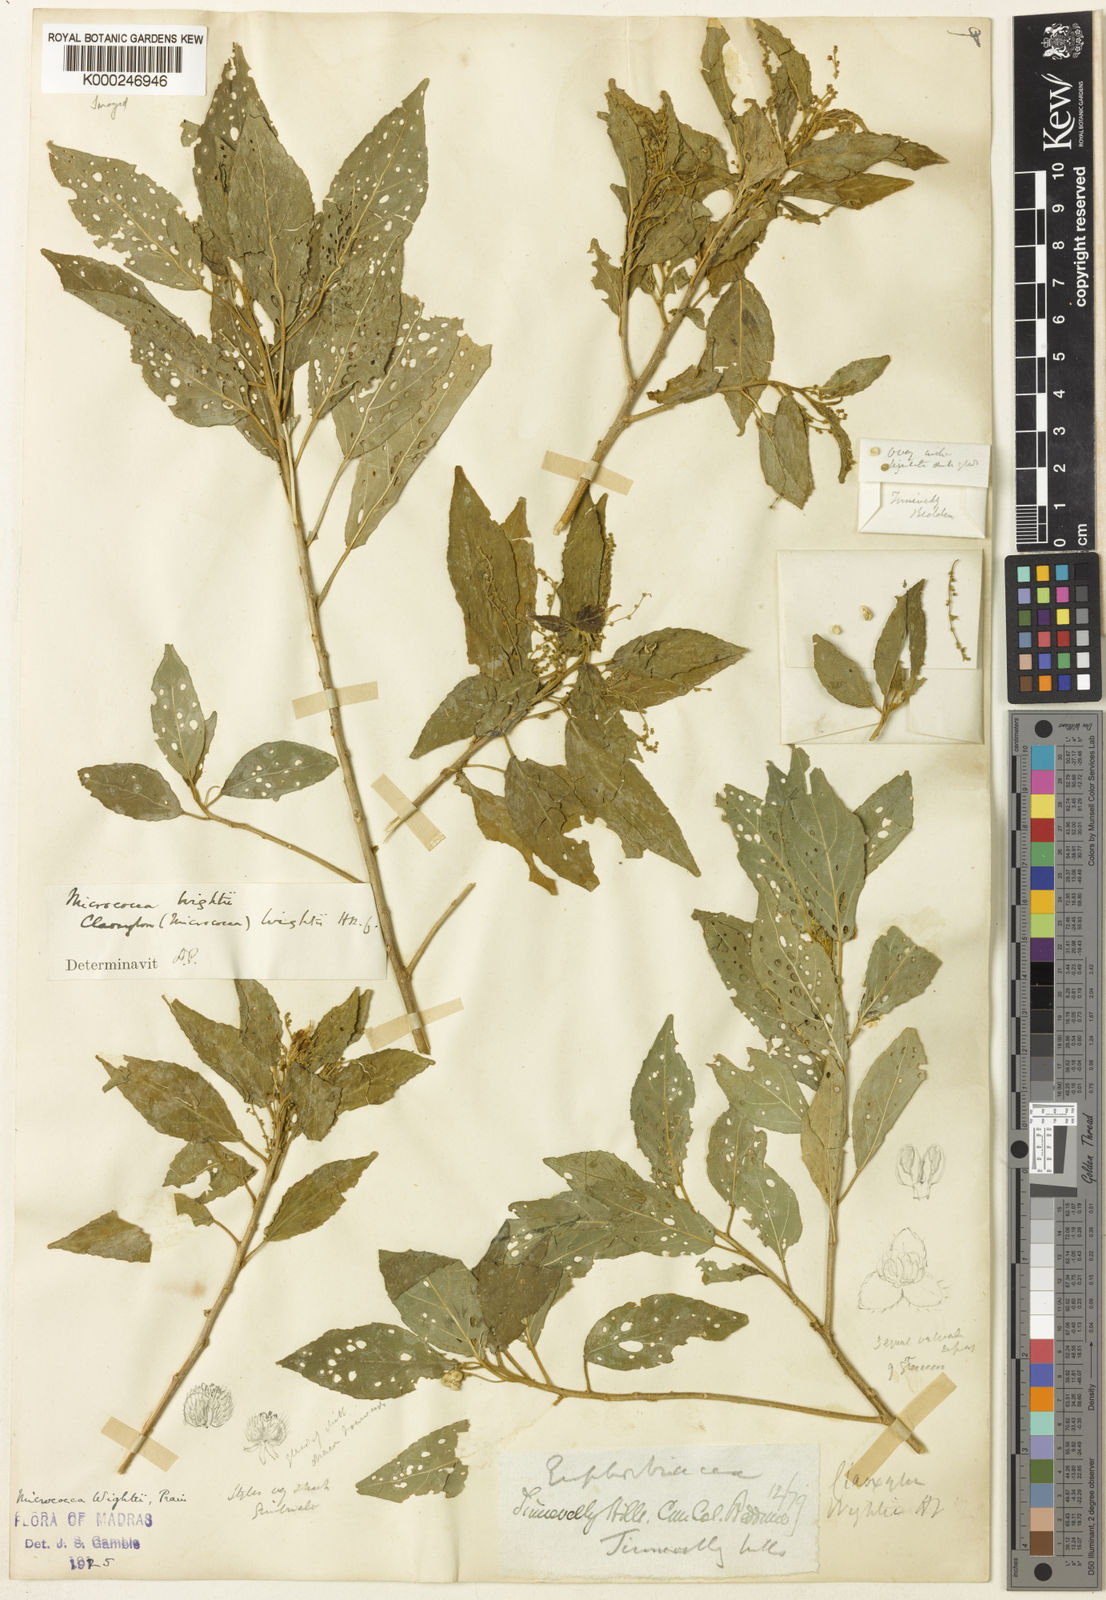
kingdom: Plantae
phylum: Tracheophyta
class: Magnoliopsida
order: Malpighiales
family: Euphorbiaceae
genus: Micrococca
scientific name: Micrococca wightii
